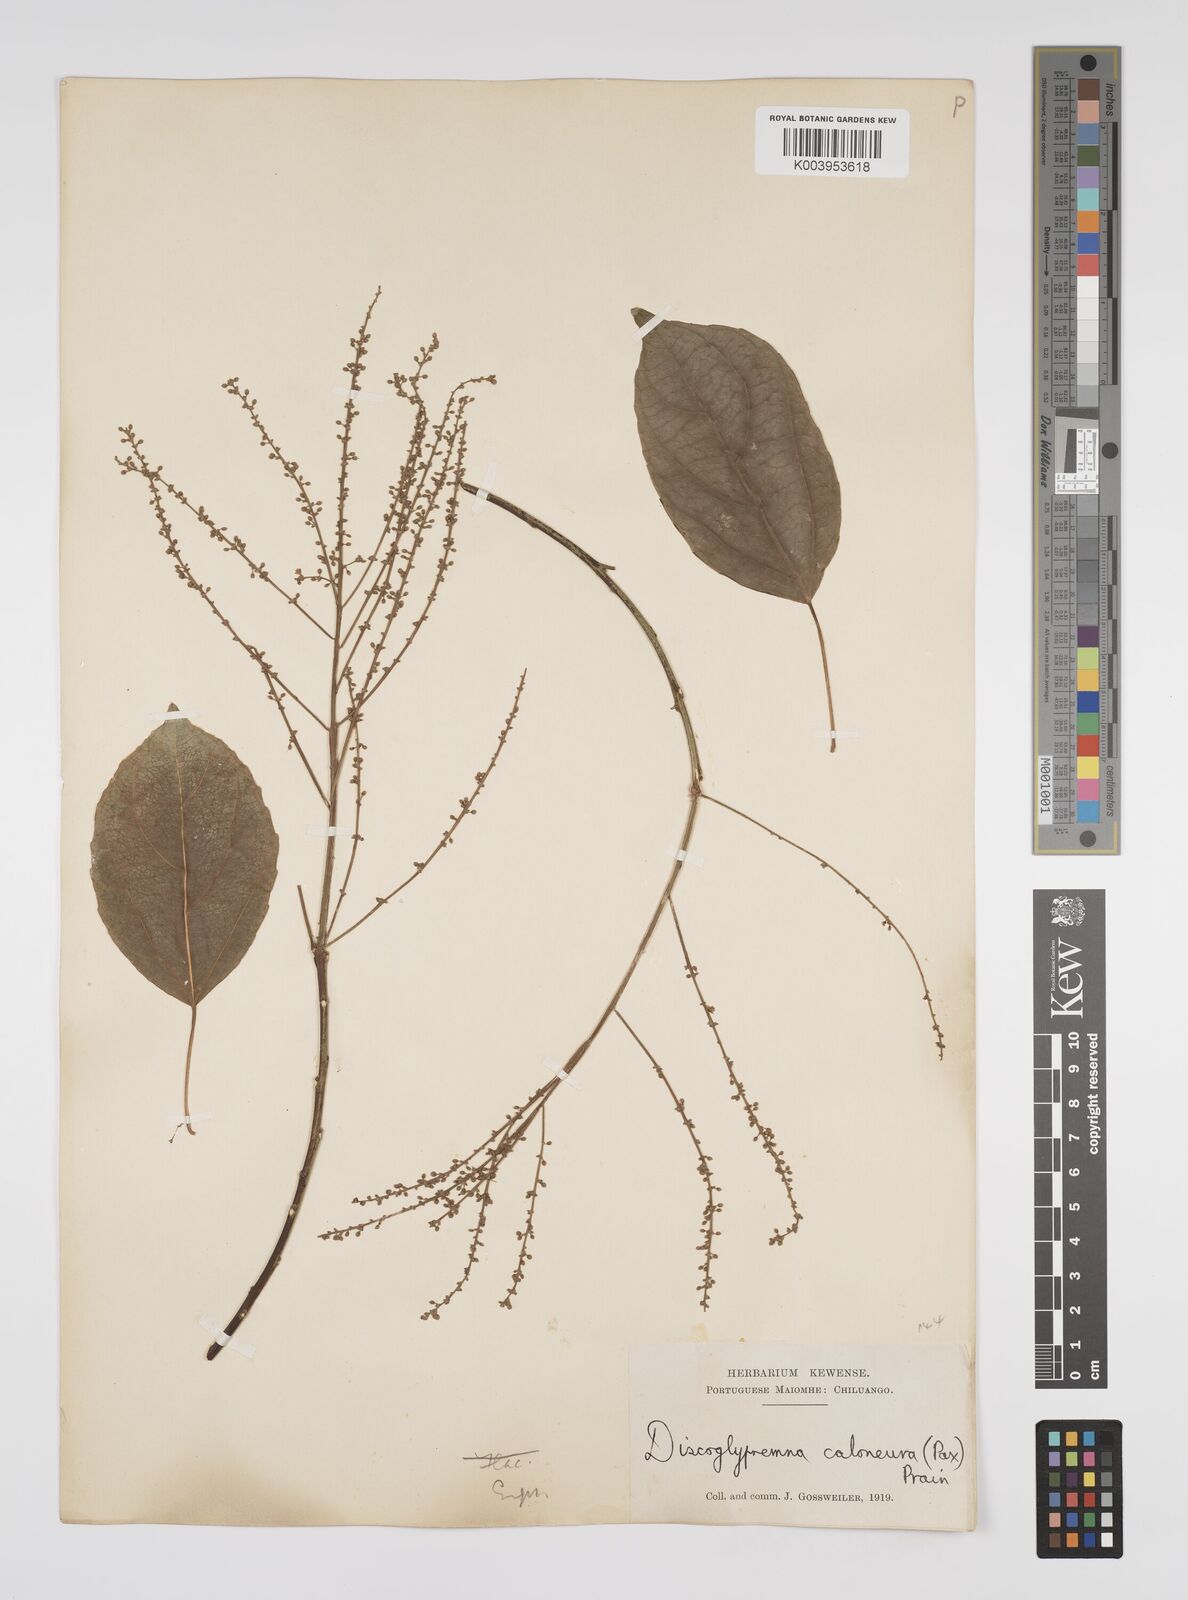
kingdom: Plantae
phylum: Tracheophyta
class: Magnoliopsida
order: Malpighiales
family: Euphorbiaceae
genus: Discoglypremna
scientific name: Discoglypremna caloneura
